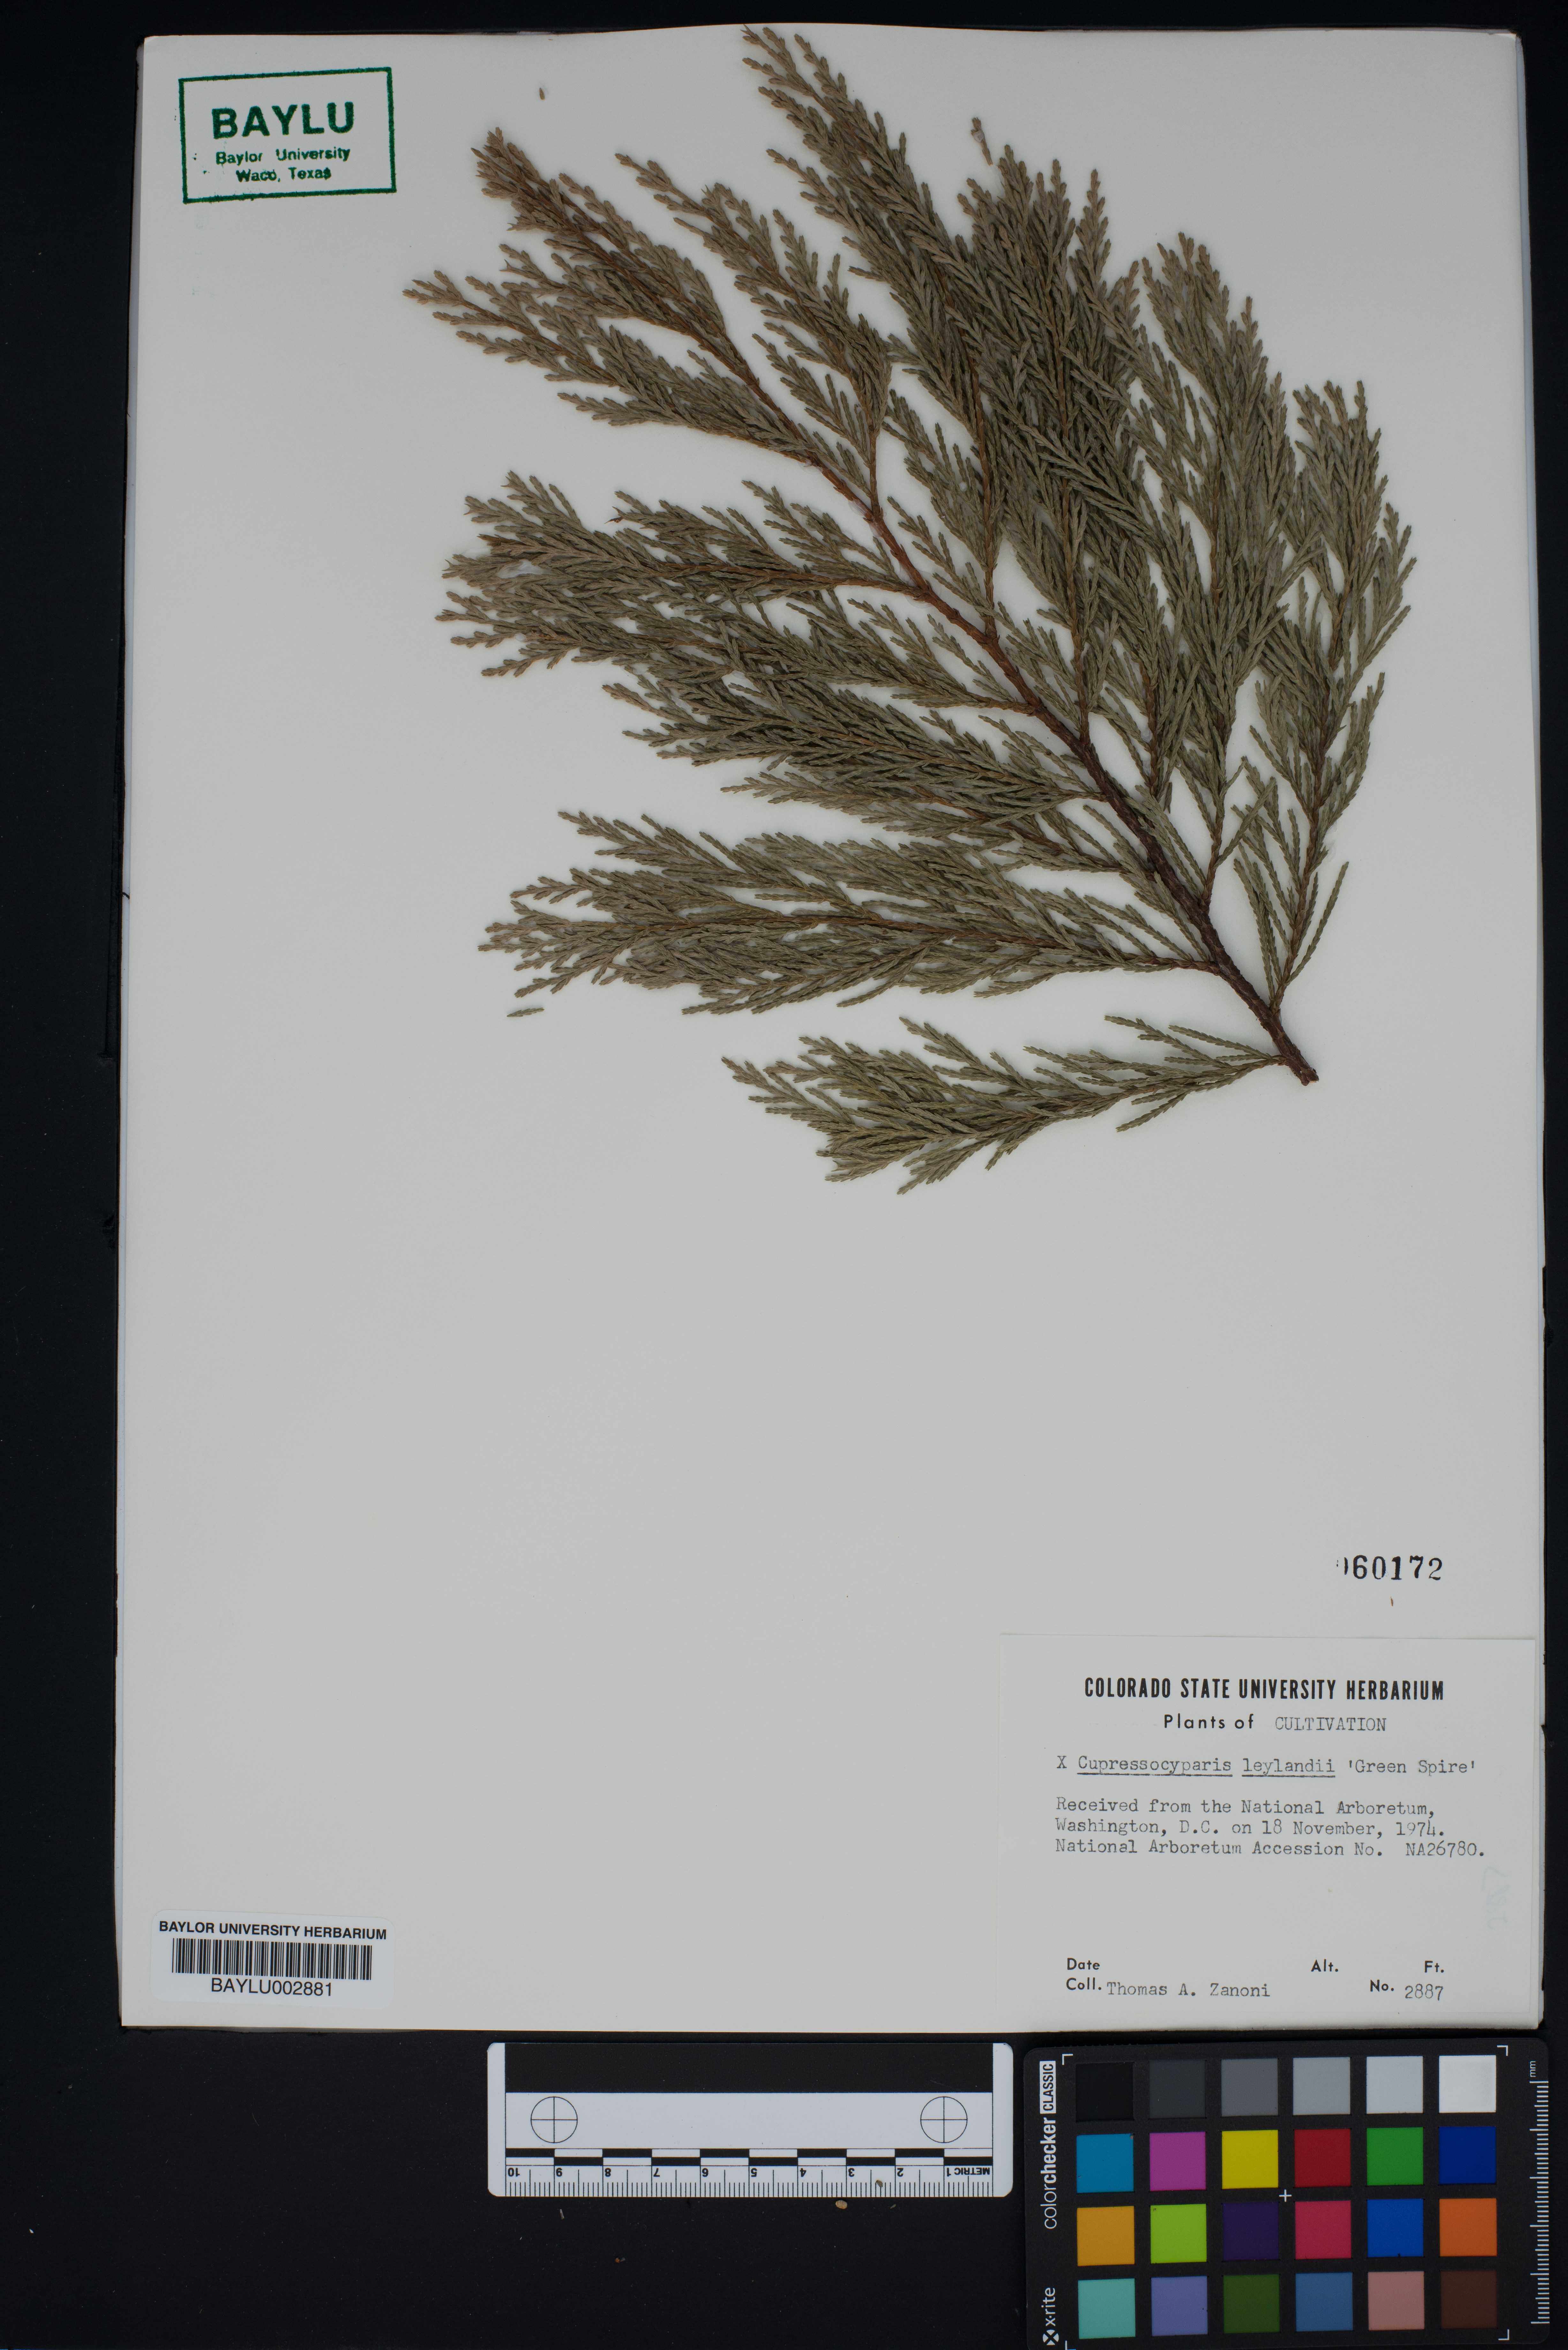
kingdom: Plantae
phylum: Tracheophyta
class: Pinopsida
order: Pinales
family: Cupressaceae
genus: Hesperotropsis
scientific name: Hesperotropsis leylandii
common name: Leyland cypress
